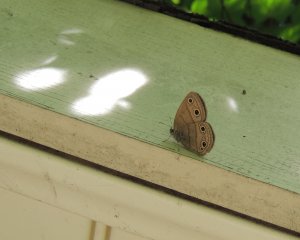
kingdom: Animalia
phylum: Arthropoda
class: Insecta
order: Lepidoptera
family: Nymphalidae
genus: Euptychia
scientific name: Euptychia cymela
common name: Little Wood Satyr
